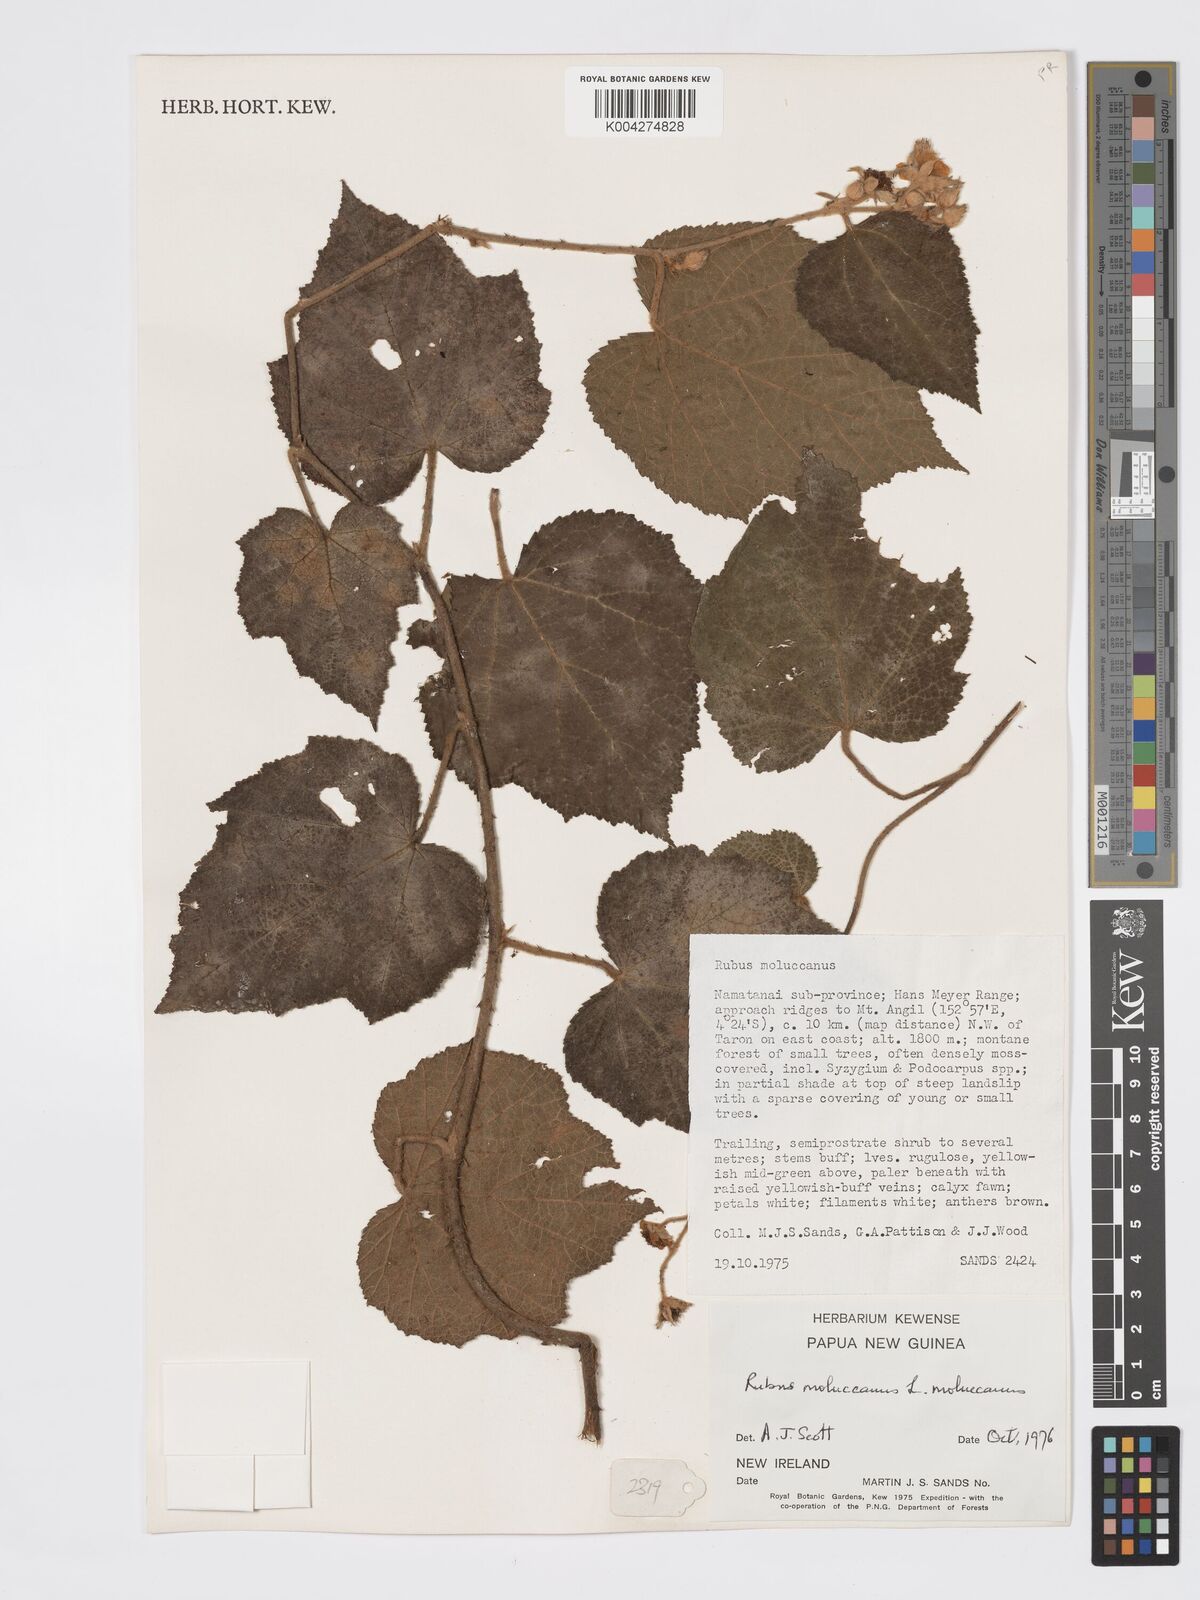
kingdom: Plantae
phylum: Tracheophyta
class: Magnoliopsida
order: Rosales
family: Rosaceae
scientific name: Rosaceae
